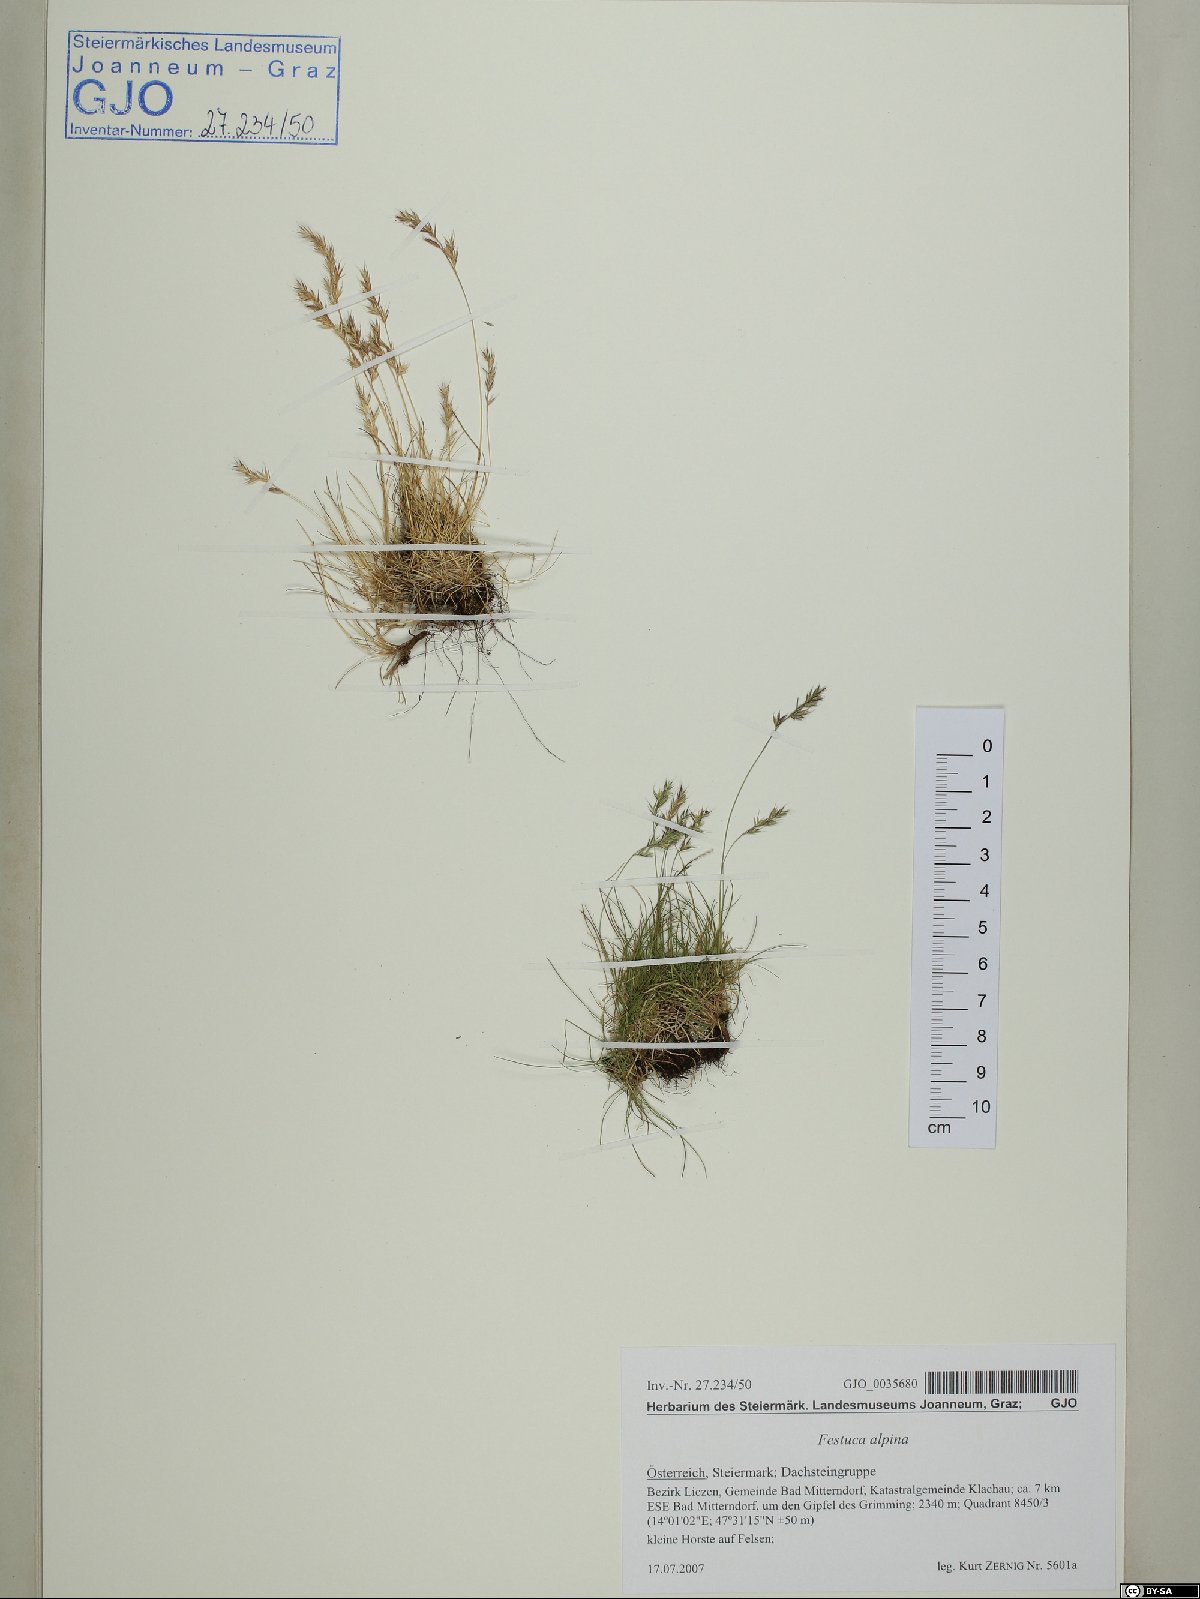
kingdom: Plantae
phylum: Tracheophyta
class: Liliopsida
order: Poales
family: Poaceae
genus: Festuca
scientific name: Festuca alpina
